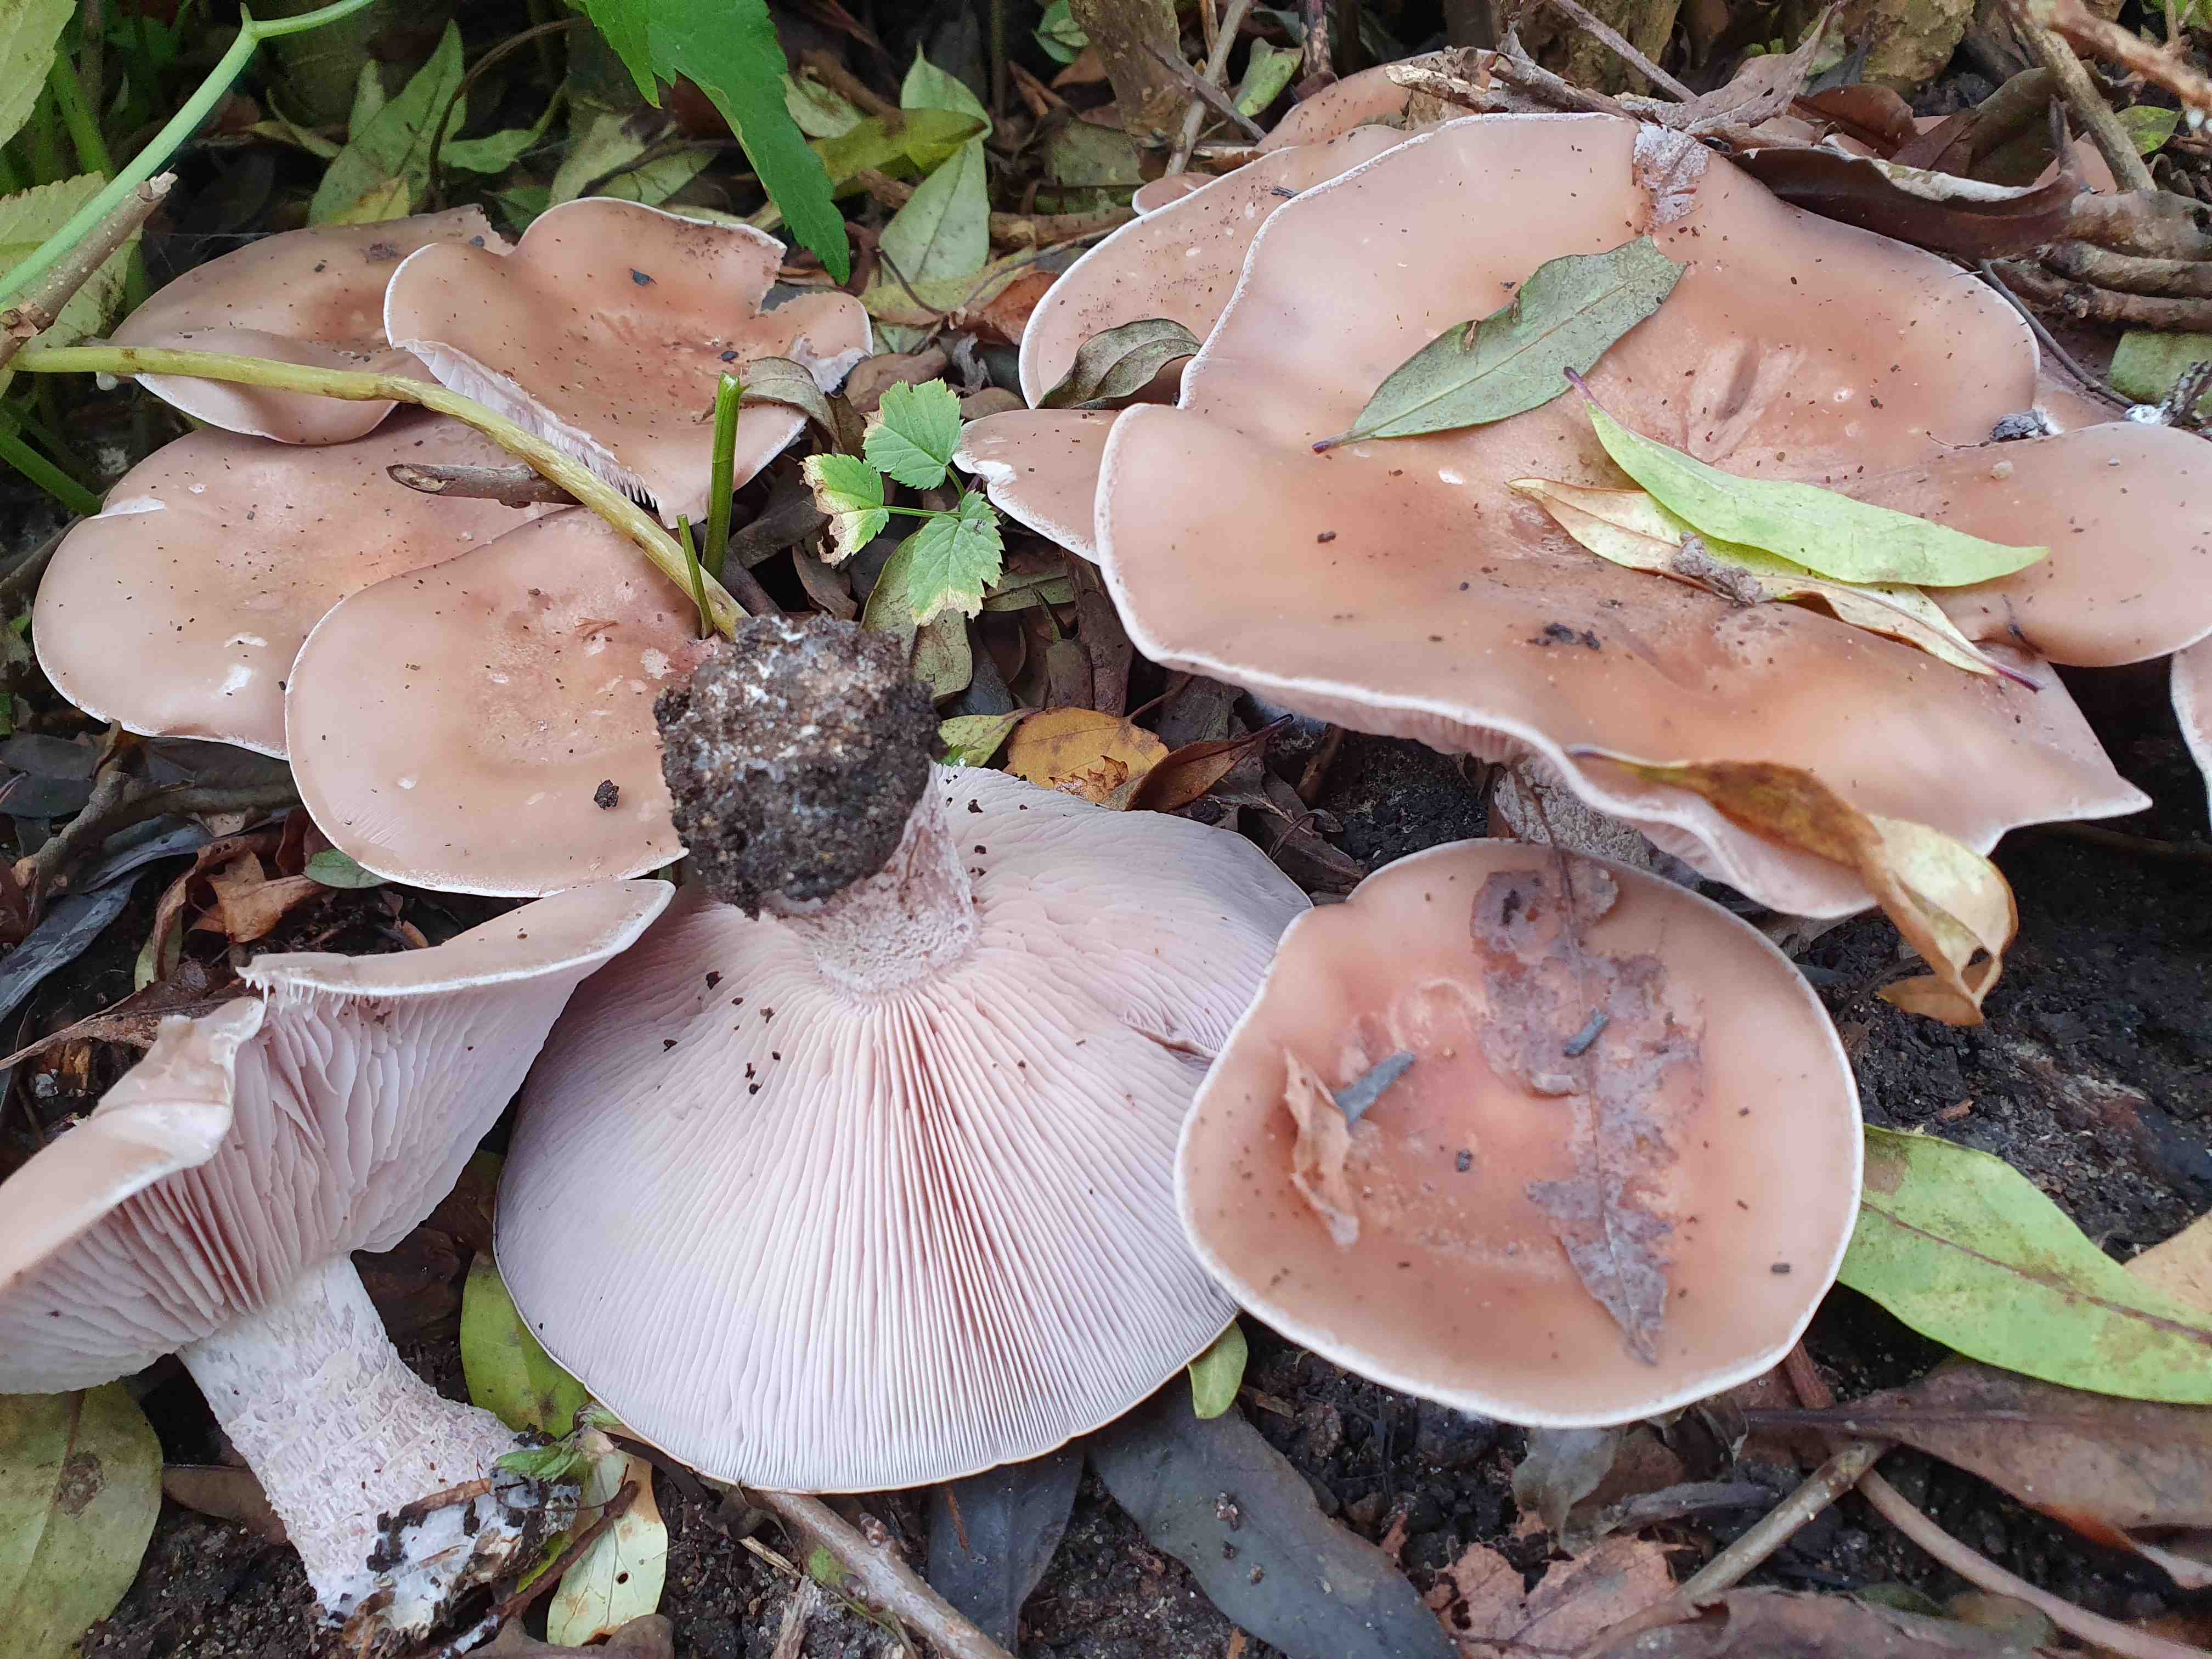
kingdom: Fungi
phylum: Basidiomycota
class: Agaricomycetes
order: Agaricales
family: Tricholomataceae
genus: Lepista
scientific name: Lepista nuda
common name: violet hekseringshat
